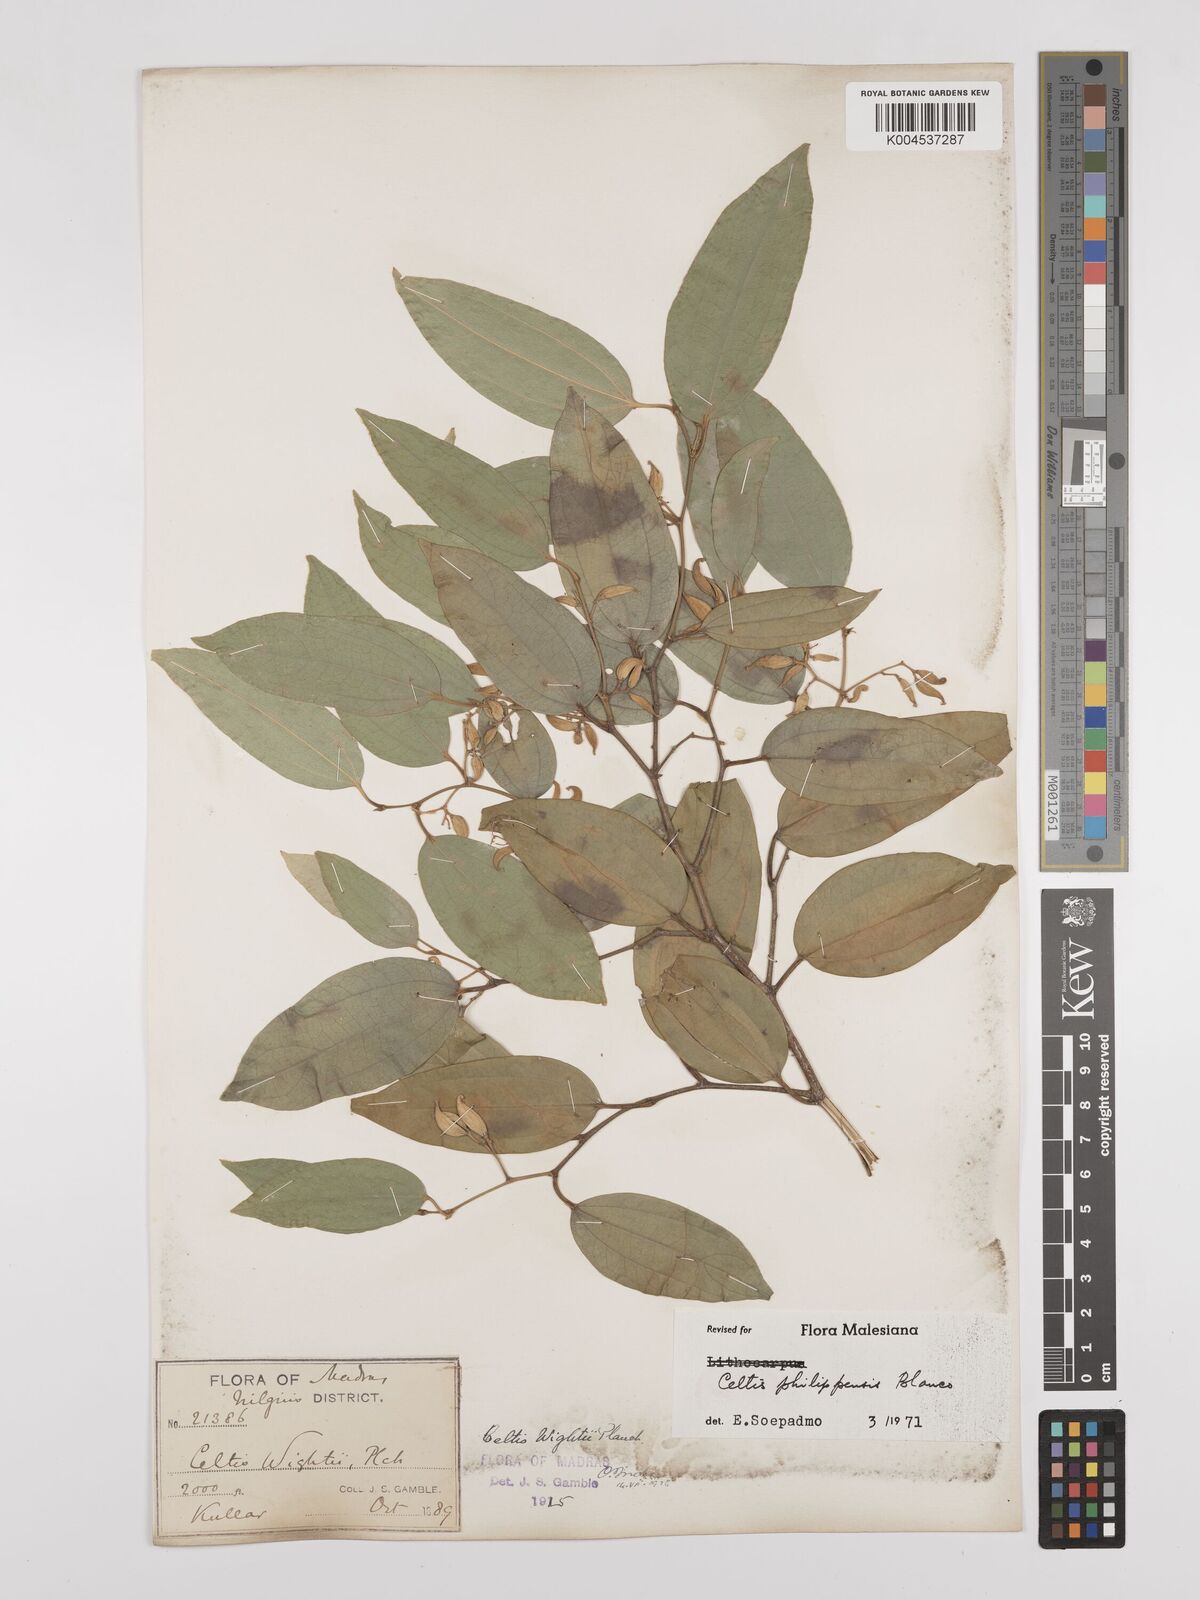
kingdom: Plantae
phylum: Tracheophyta
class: Magnoliopsida
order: Rosales
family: Cannabaceae
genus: Celtis
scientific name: Celtis philippensis
